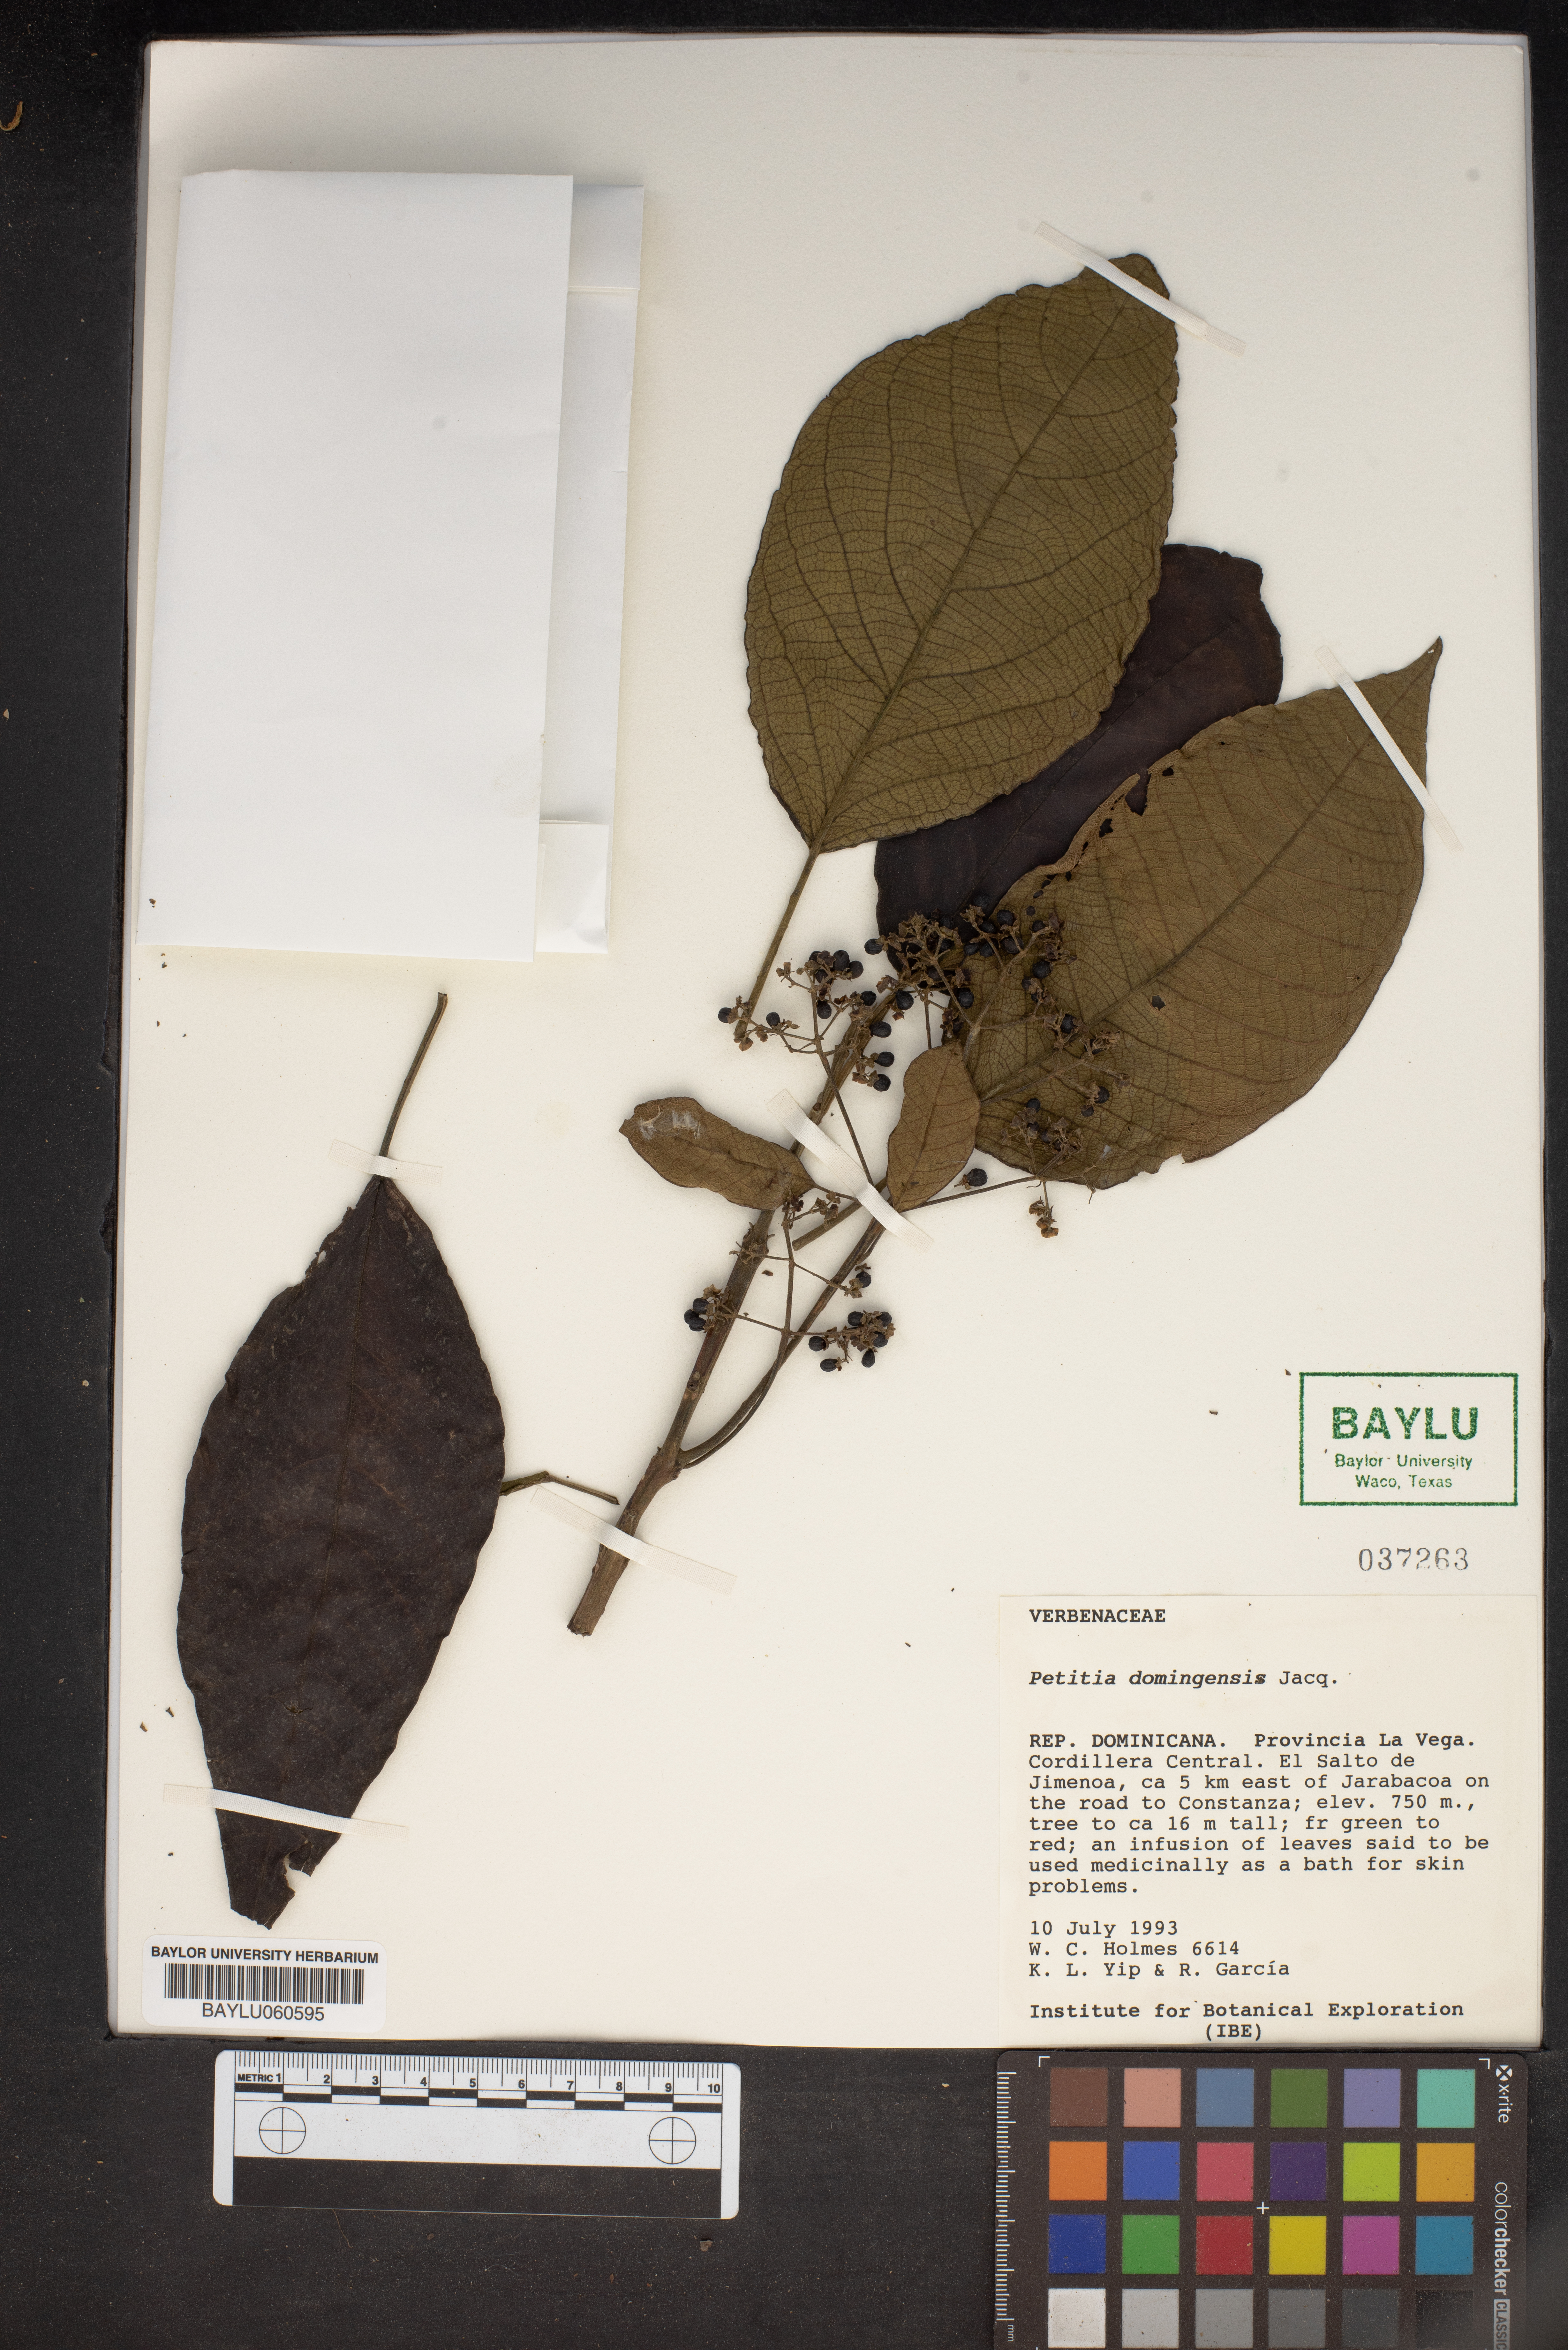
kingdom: Plantae
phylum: Tracheophyta
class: Magnoliopsida
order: Lamiales
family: Lamiaceae
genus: Petitia
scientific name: Petitia domingensis
